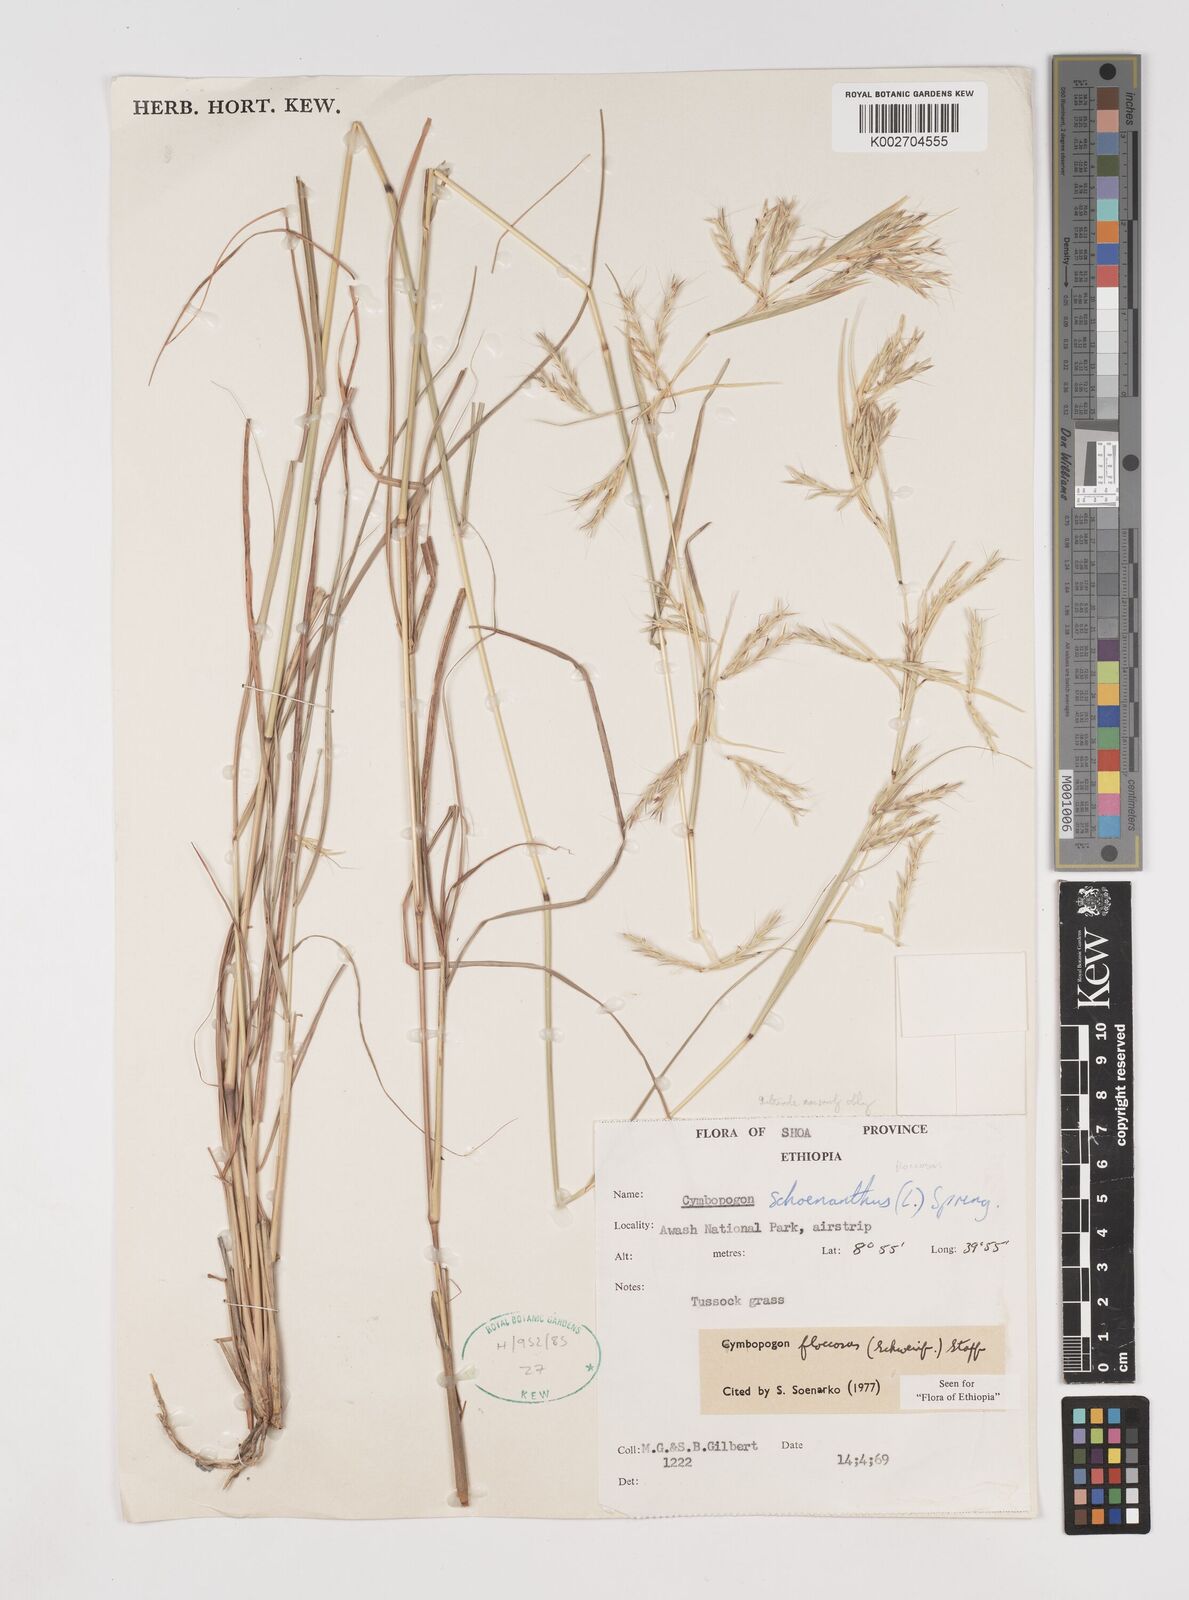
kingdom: Plantae
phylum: Tracheophyta
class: Liliopsida
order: Poales
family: Poaceae
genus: Cymbopogon
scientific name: Cymbopogon commutatus
